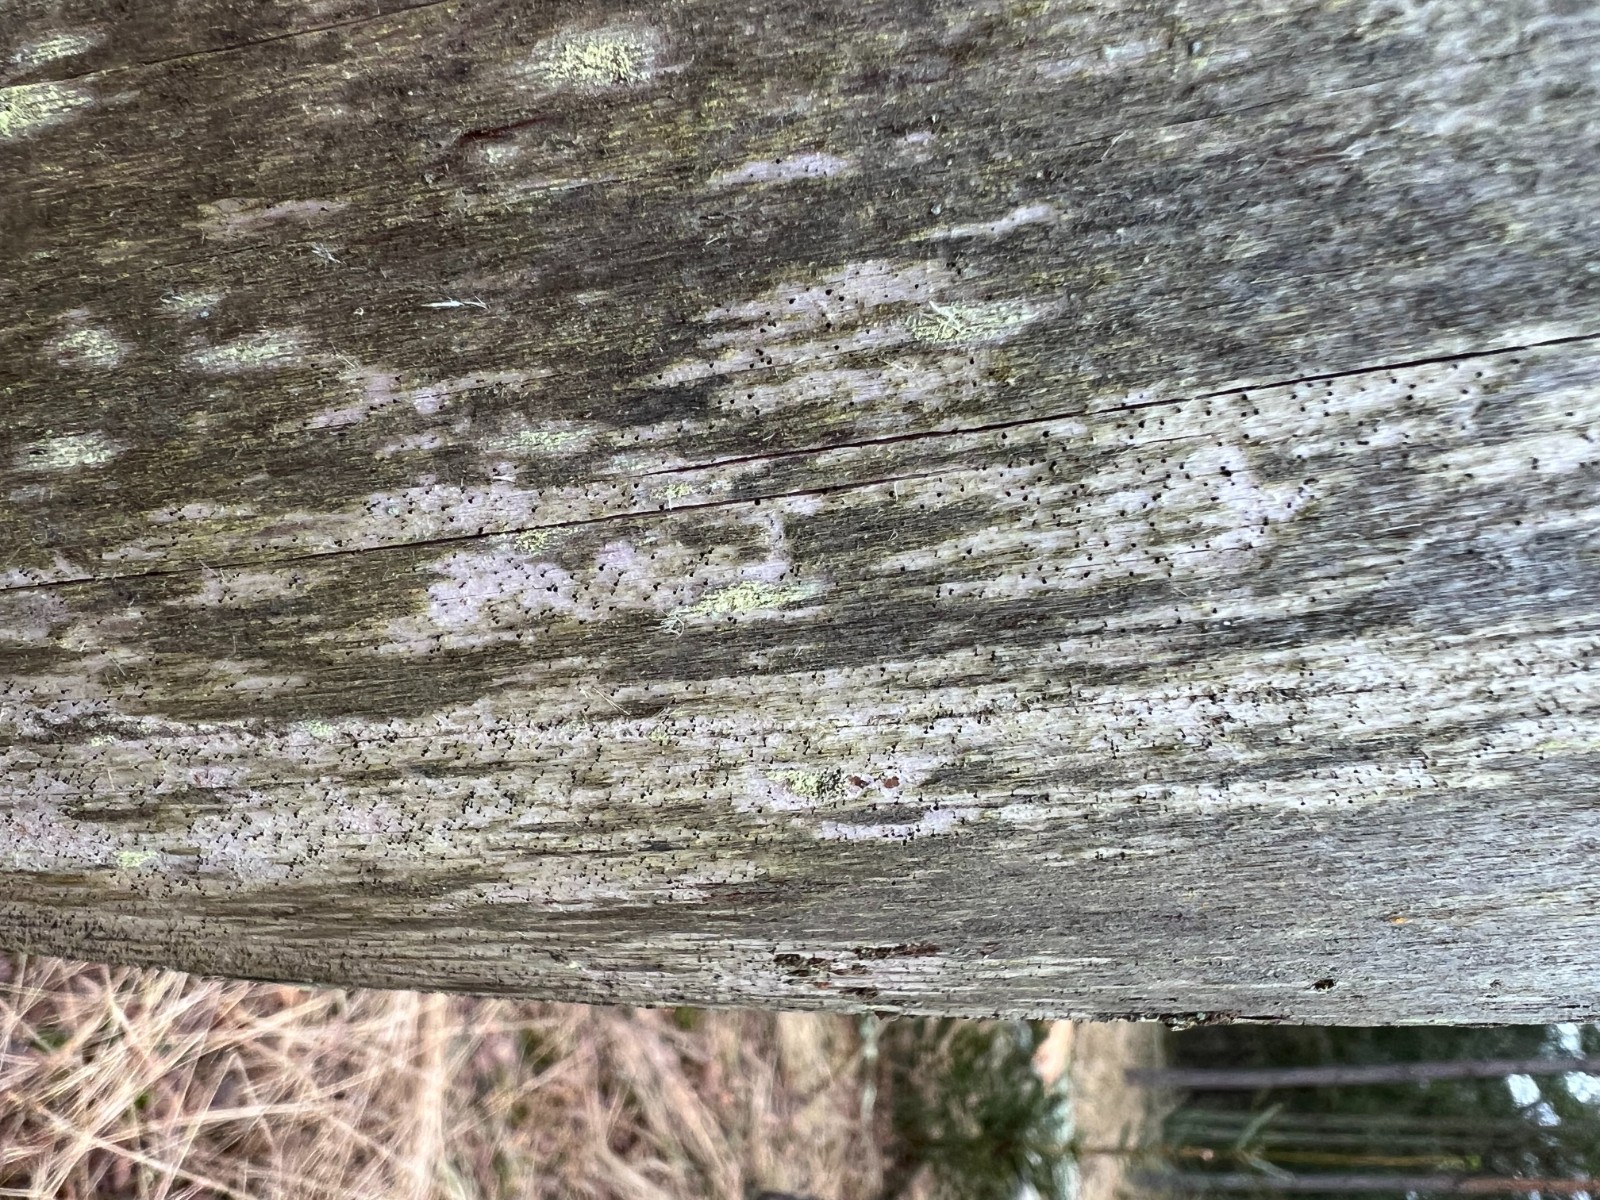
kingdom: Fungi
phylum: Ascomycota
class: Eurotiomycetes
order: Mycocaliciales
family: Mycocaliciaceae
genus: Mycocalicium
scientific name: Mycocalicium subtile
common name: ved-nålesvamp
